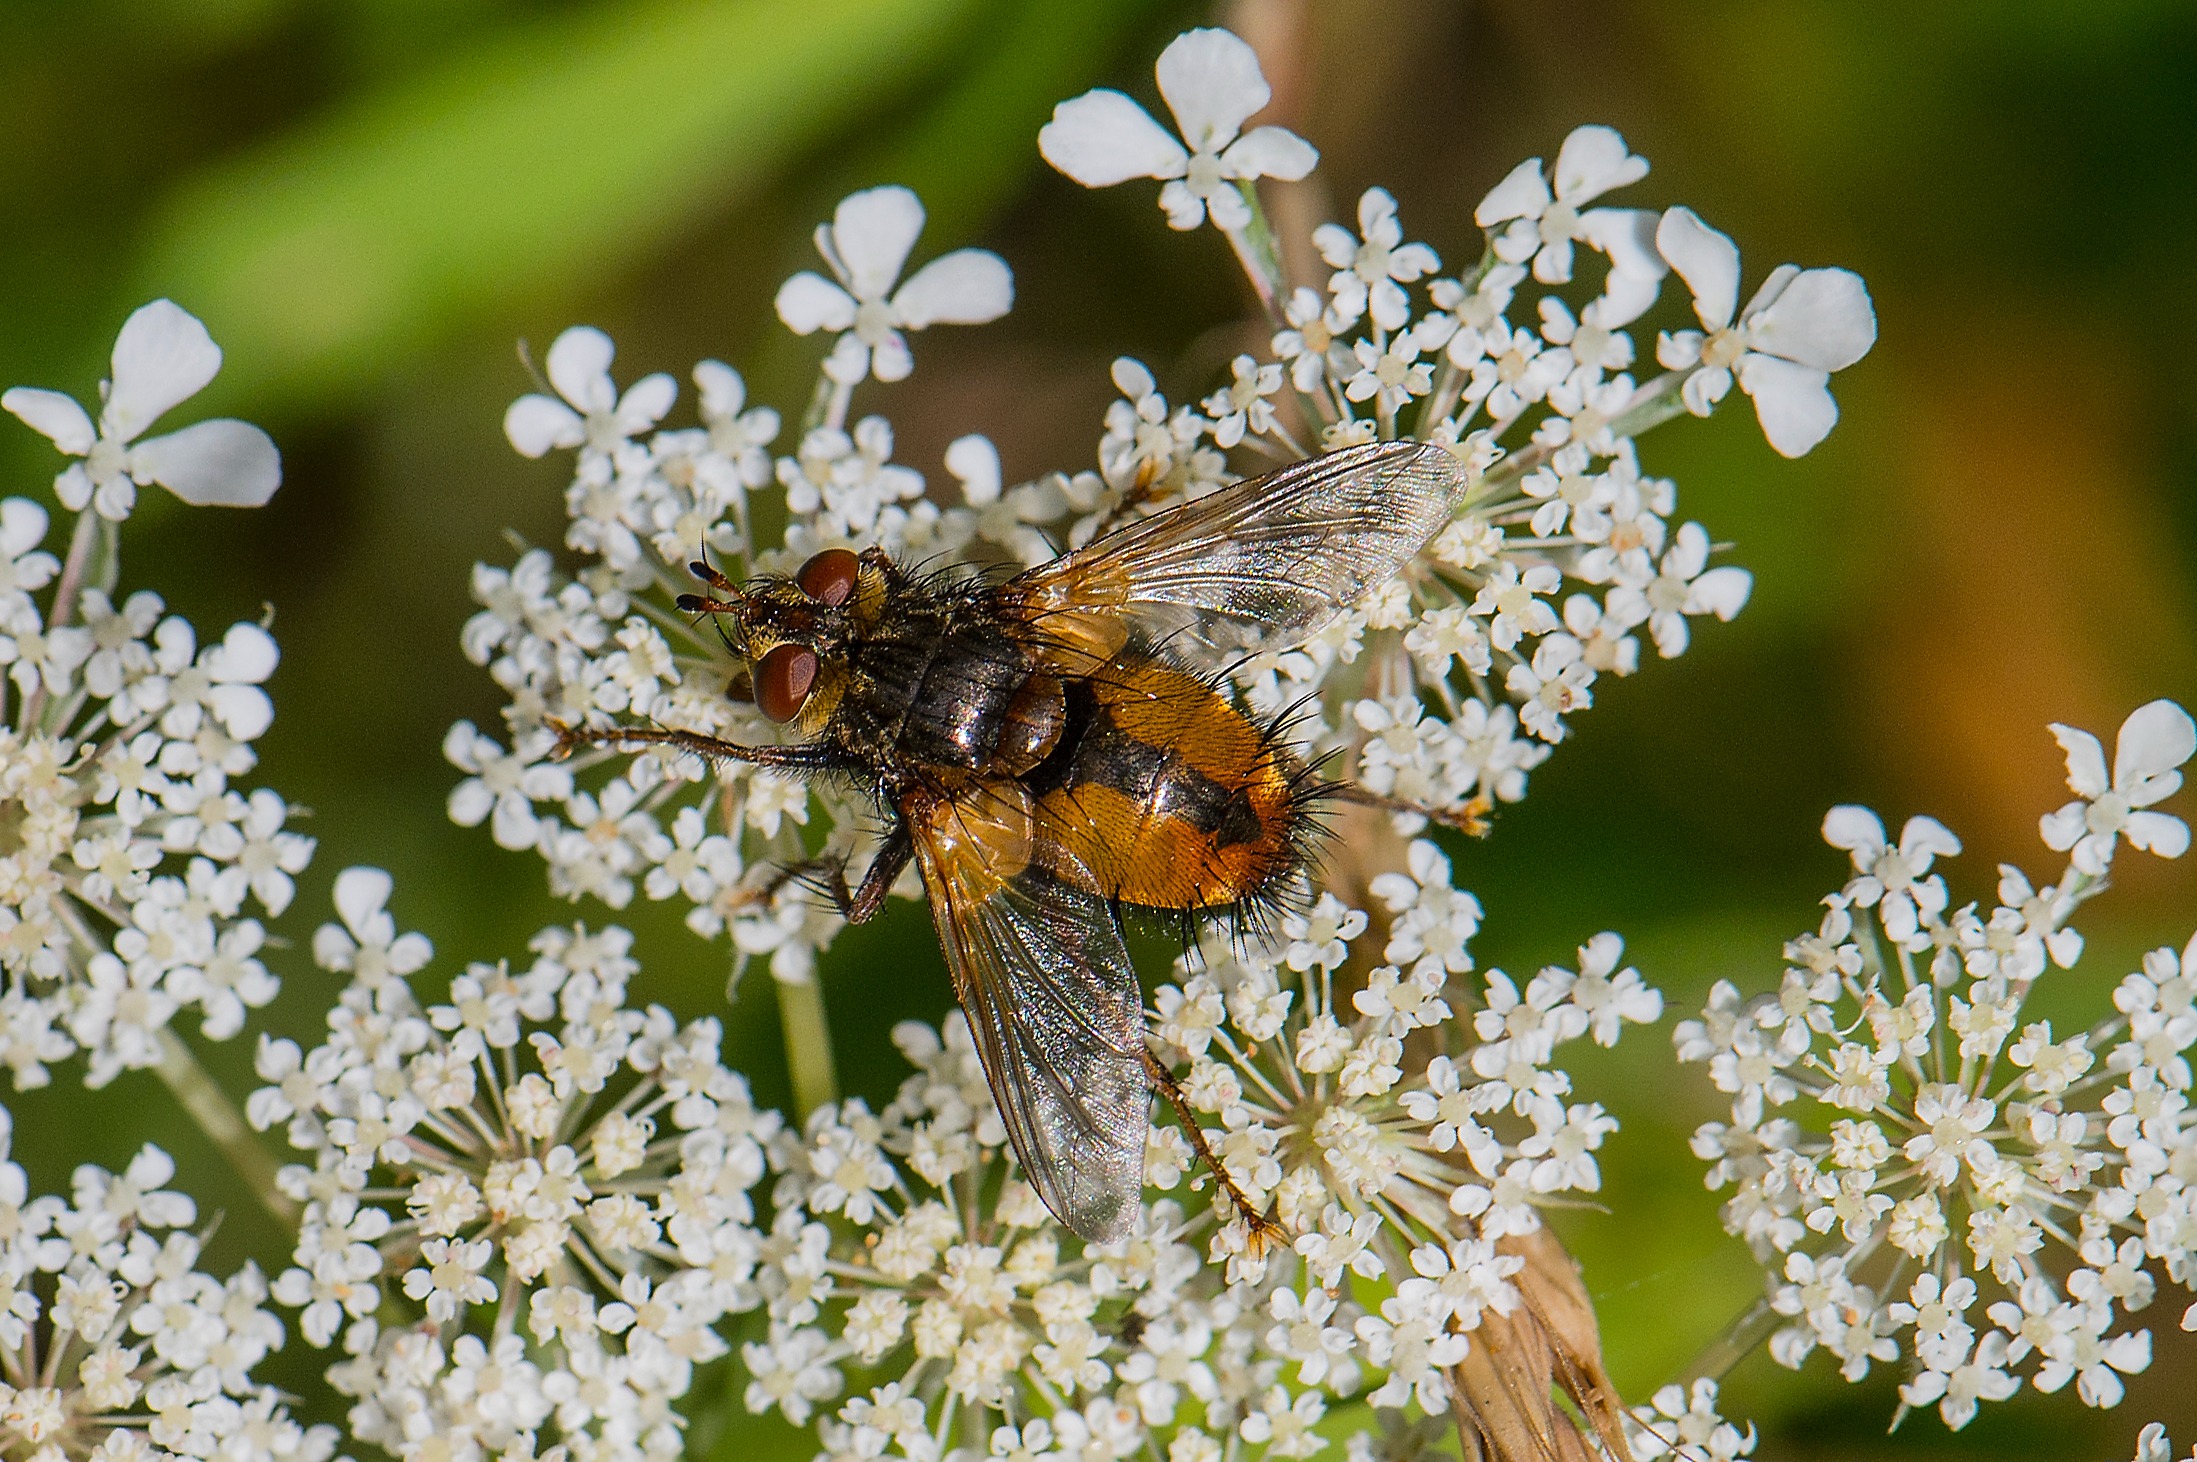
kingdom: Animalia
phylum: Arthropoda
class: Insecta
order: Diptera
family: Tachinidae
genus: Tachina
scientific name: Tachina fera
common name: Mellemfluen oskar
